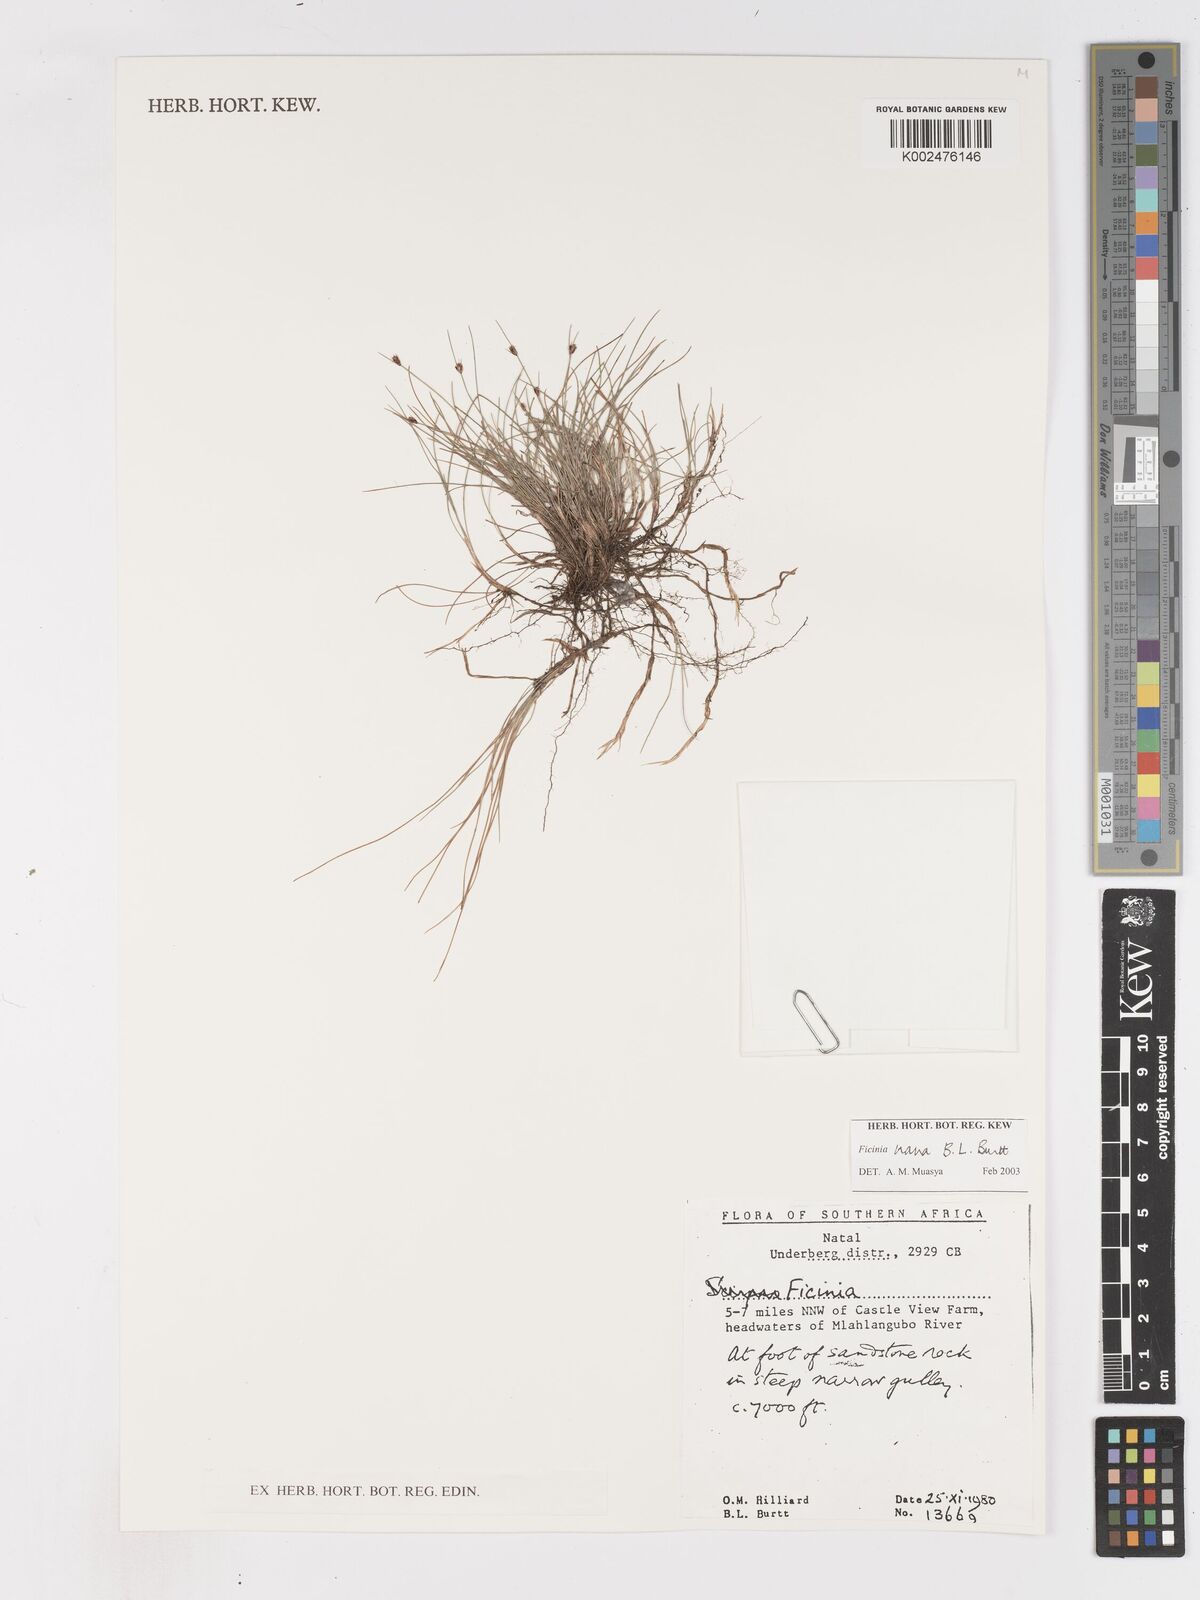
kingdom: Plantae
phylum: Tracheophyta
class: Liliopsida
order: Poales
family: Cyperaceae
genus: Ficinia
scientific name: Ficinia nana
